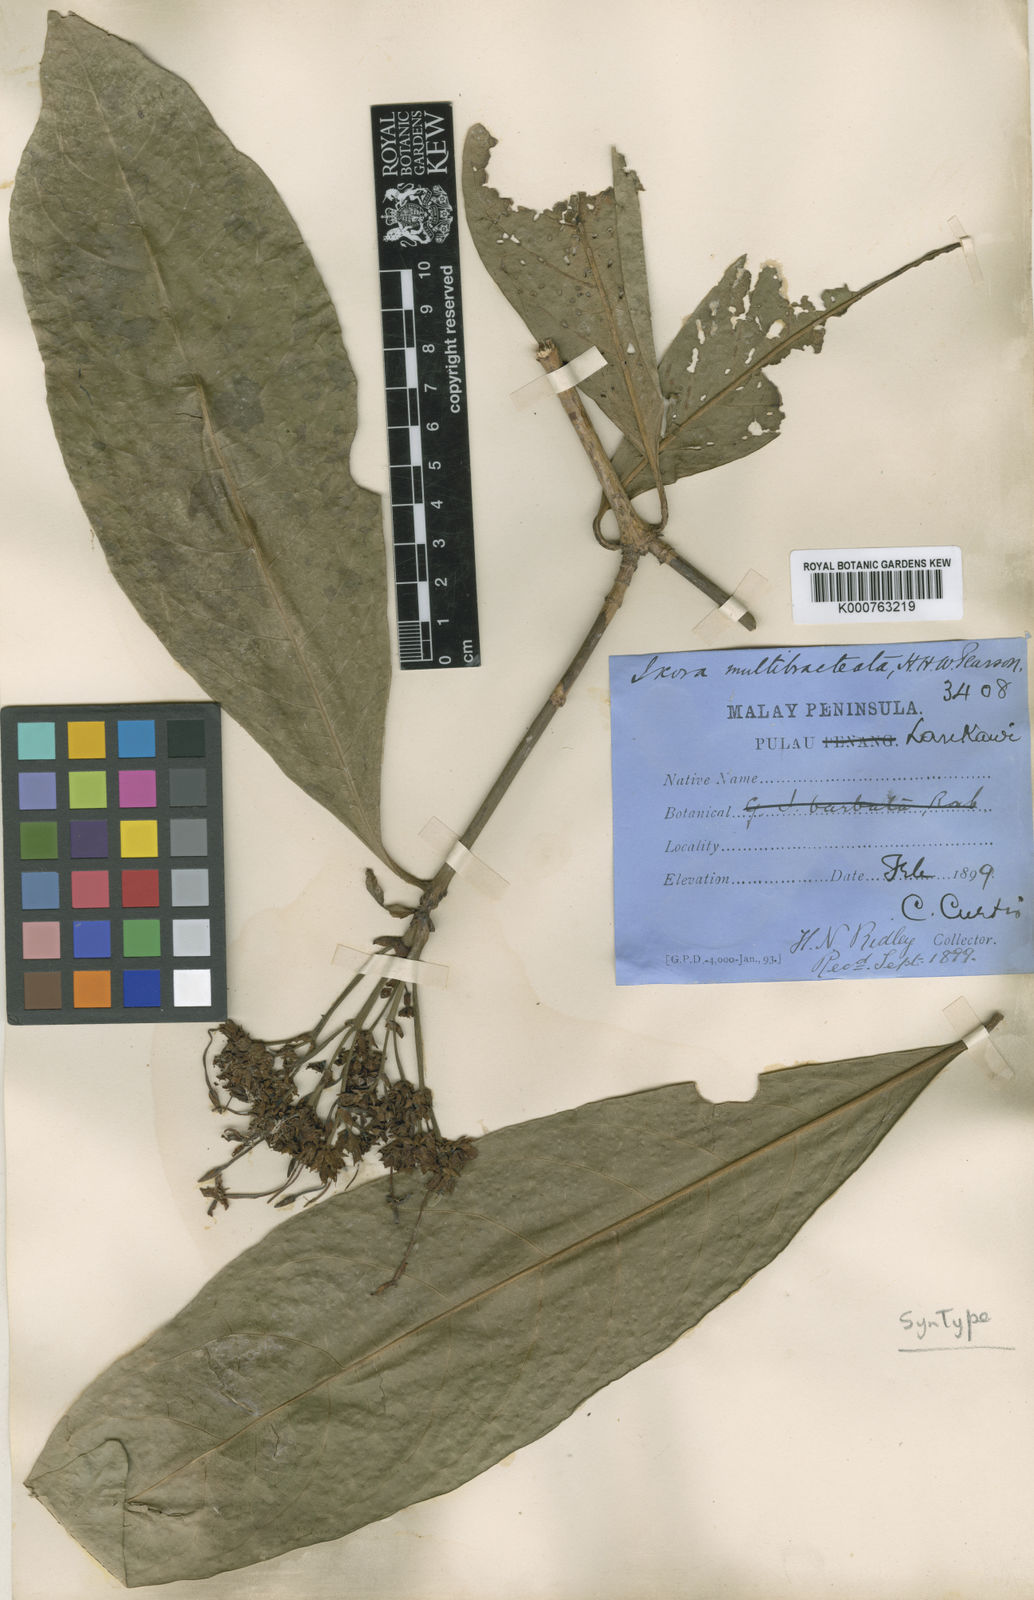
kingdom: Plantae
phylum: Tracheophyta
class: Magnoliopsida
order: Gentianales
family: Rubiaceae
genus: Ixora
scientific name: Ixora umbellata
